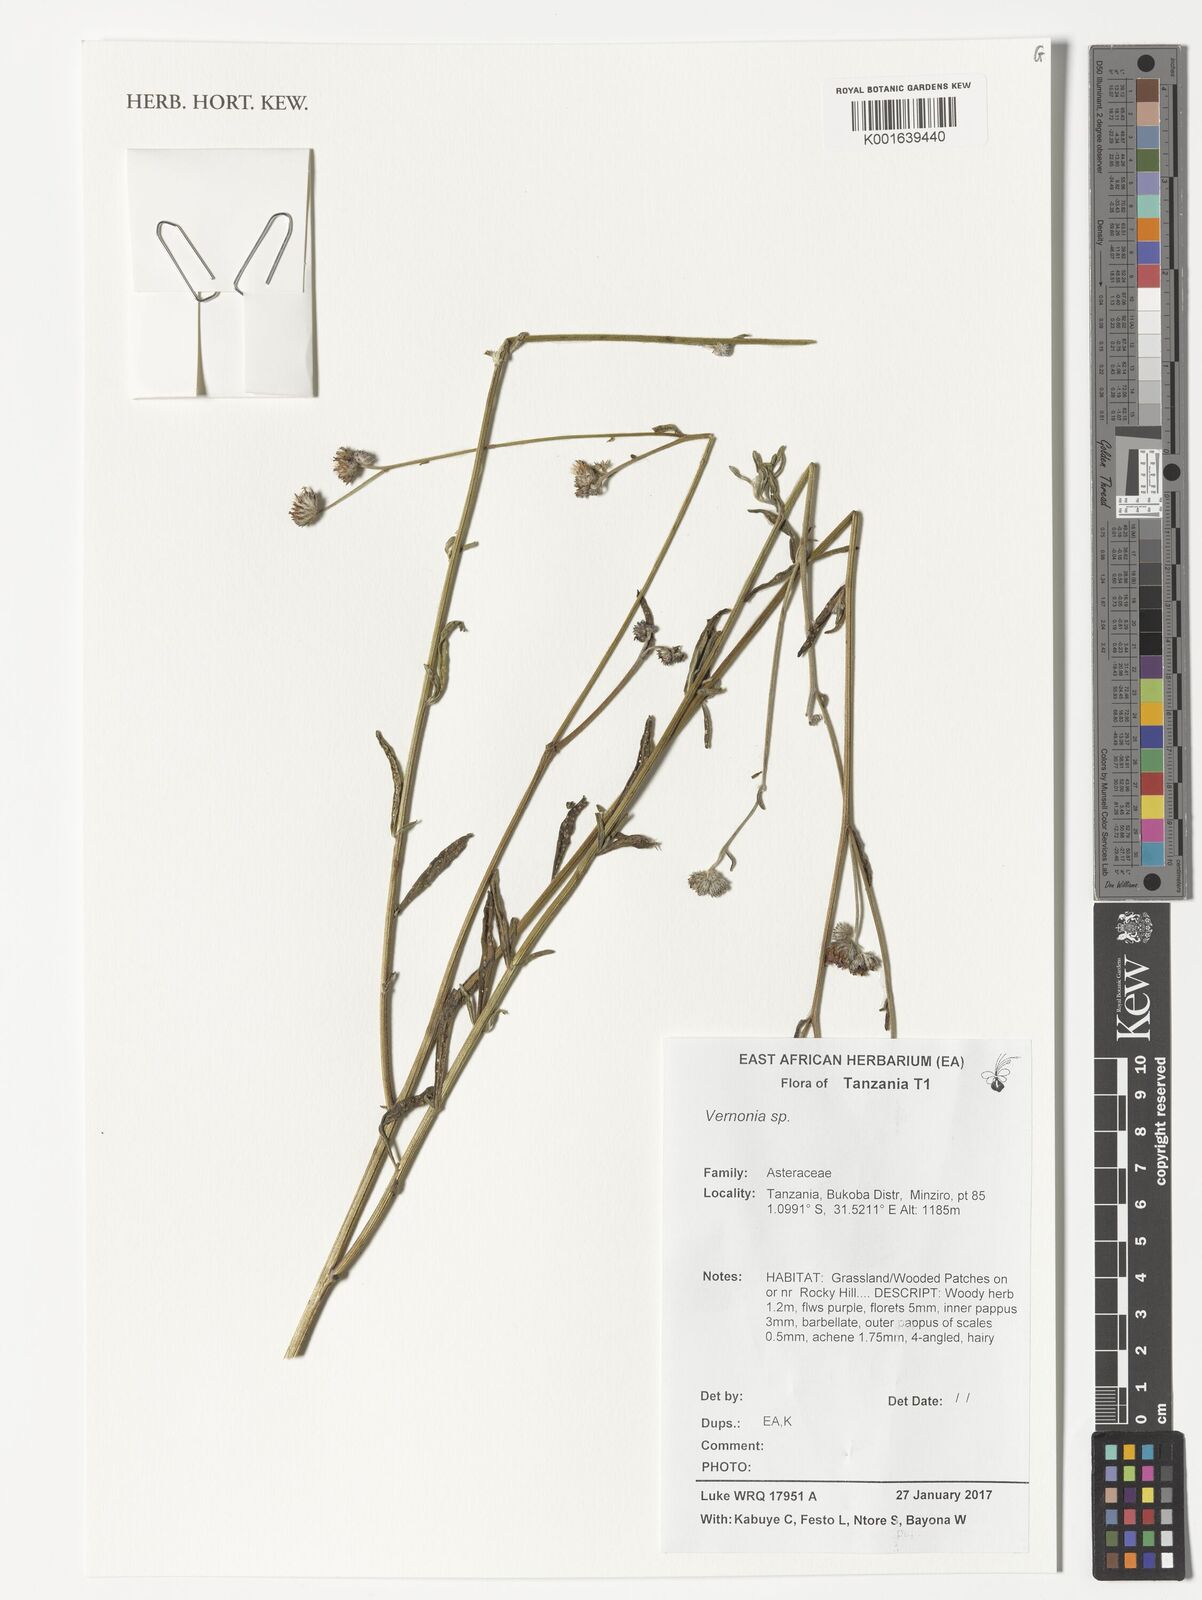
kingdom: Plantae
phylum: Tracheophyta
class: Magnoliopsida
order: Asterales
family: Asteraceae
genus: Vernonia
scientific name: Vernonia
